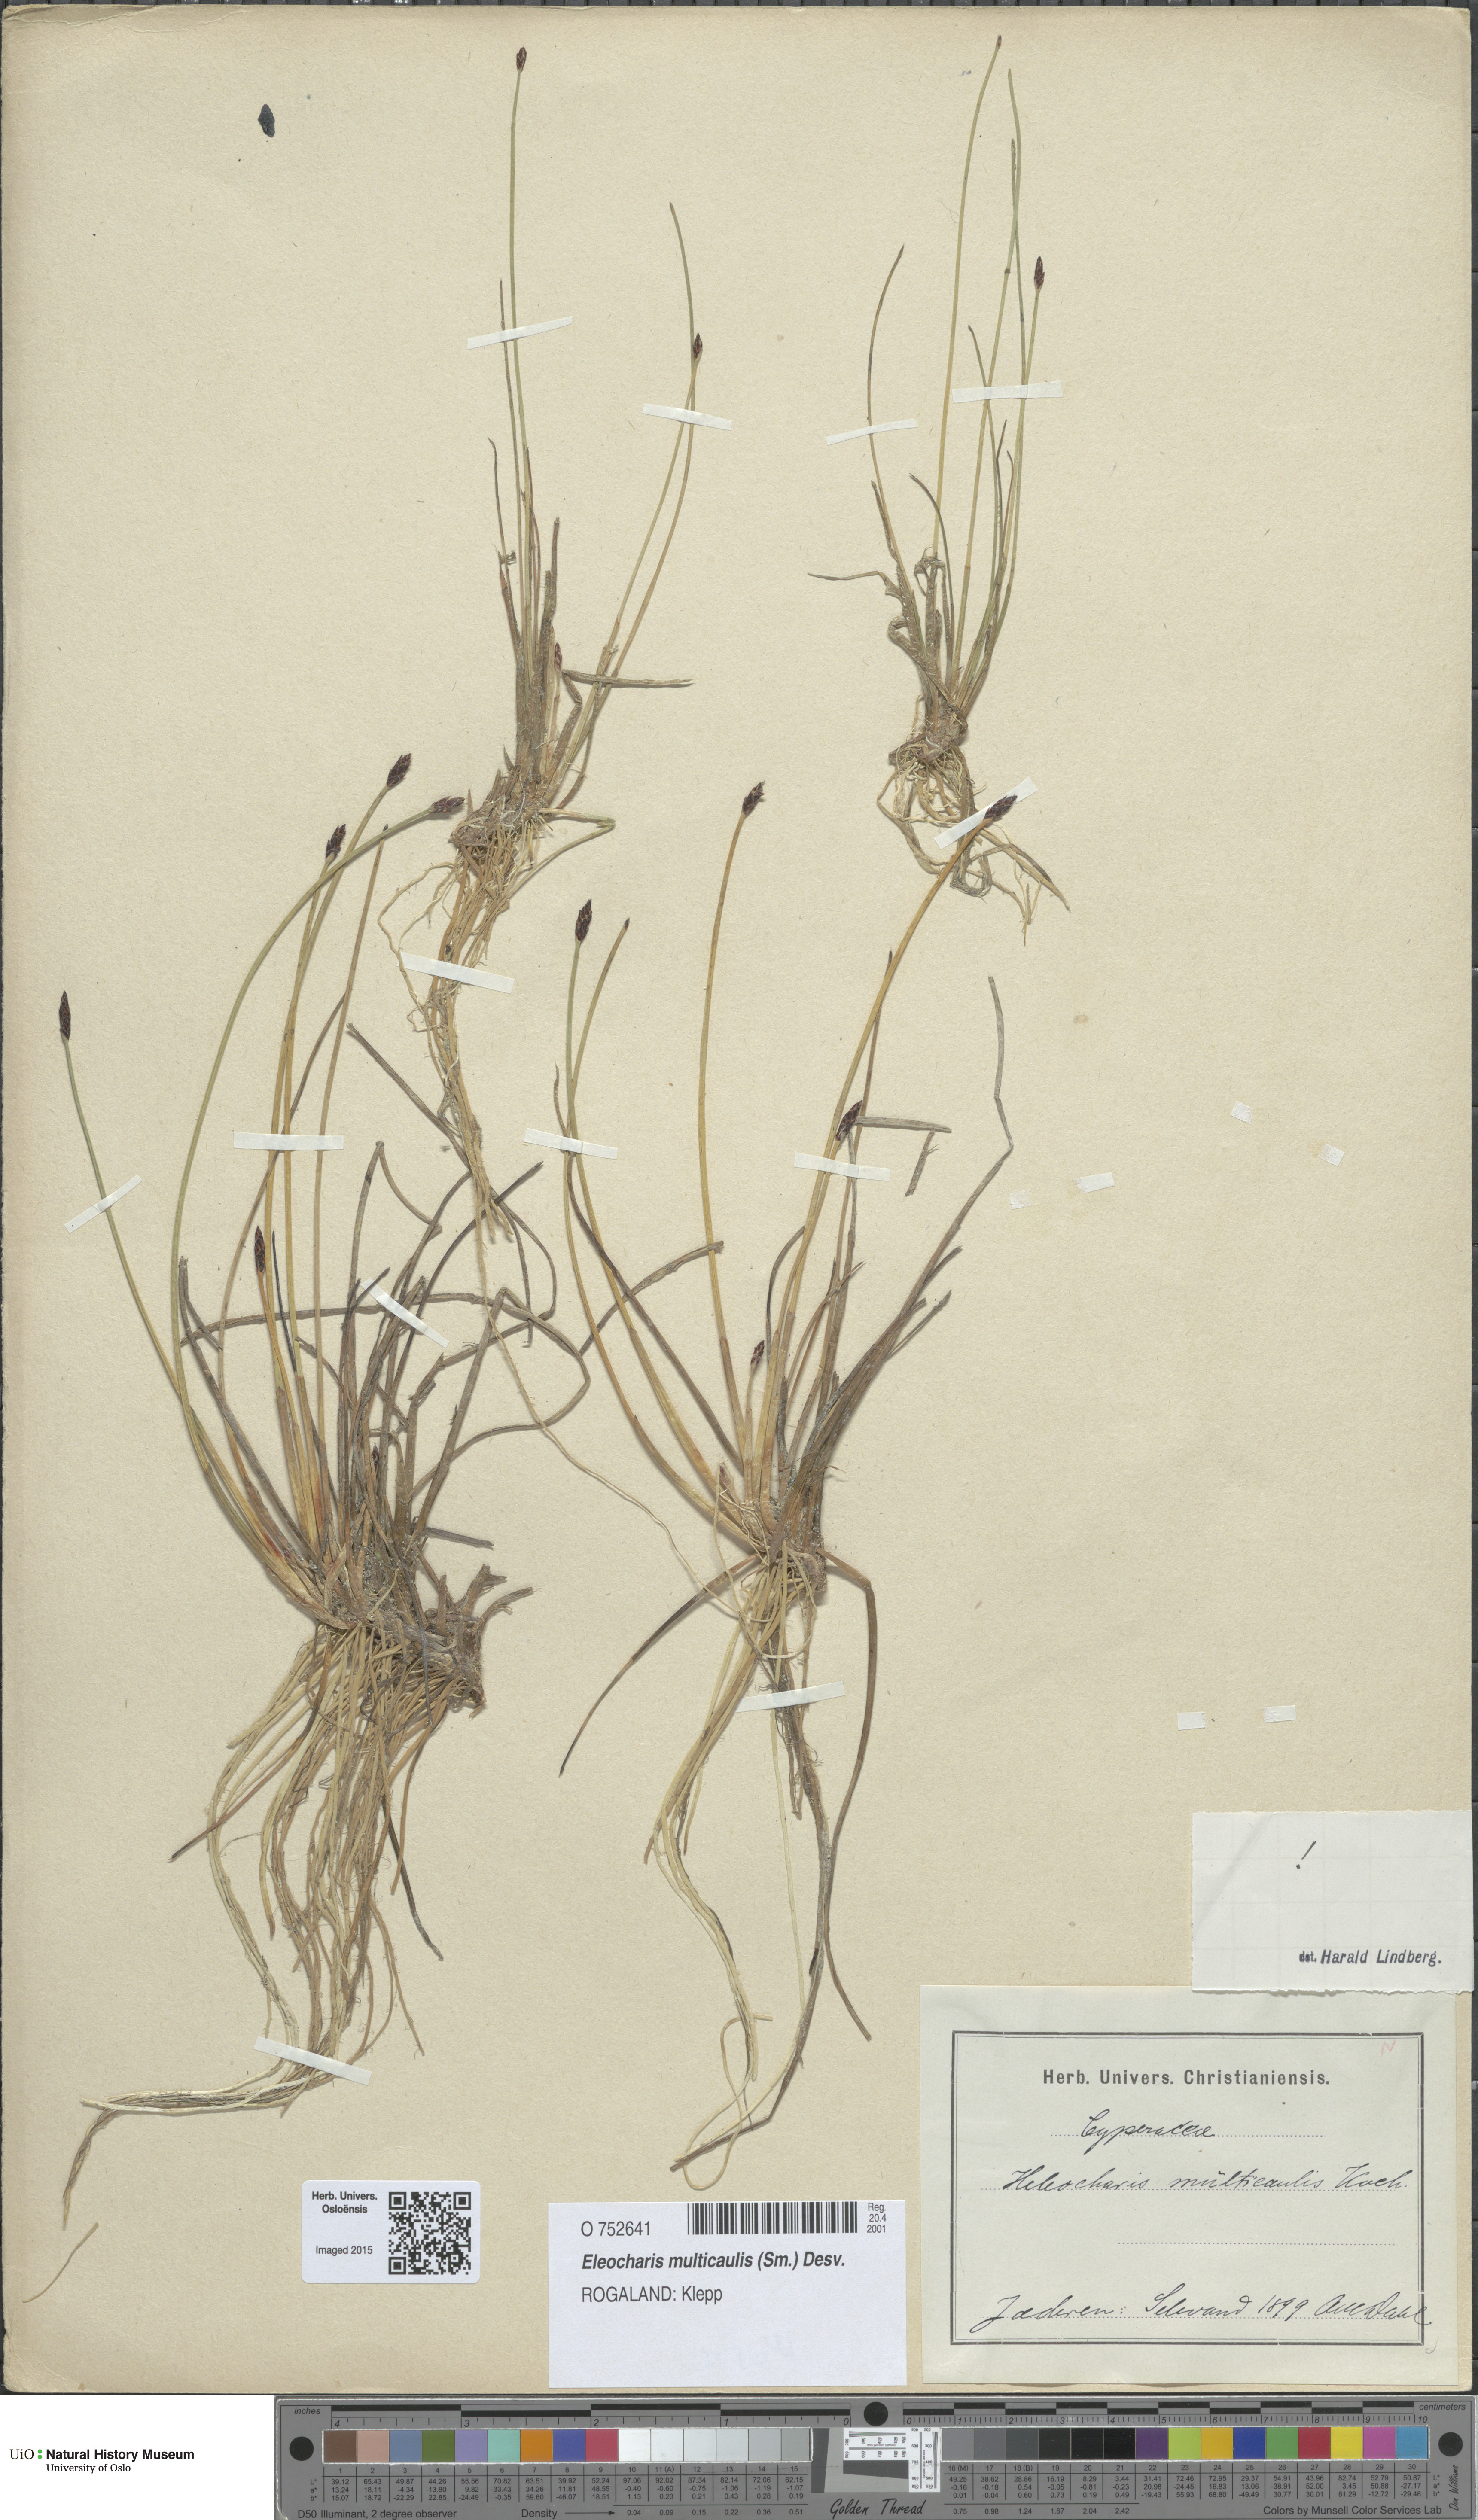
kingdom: Plantae
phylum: Tracheophyta
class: Liliopsida
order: Poales
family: Cyperaceae
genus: Eleocharis
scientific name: Eleocharis multicaulis
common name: Many-stalked spike-rush
